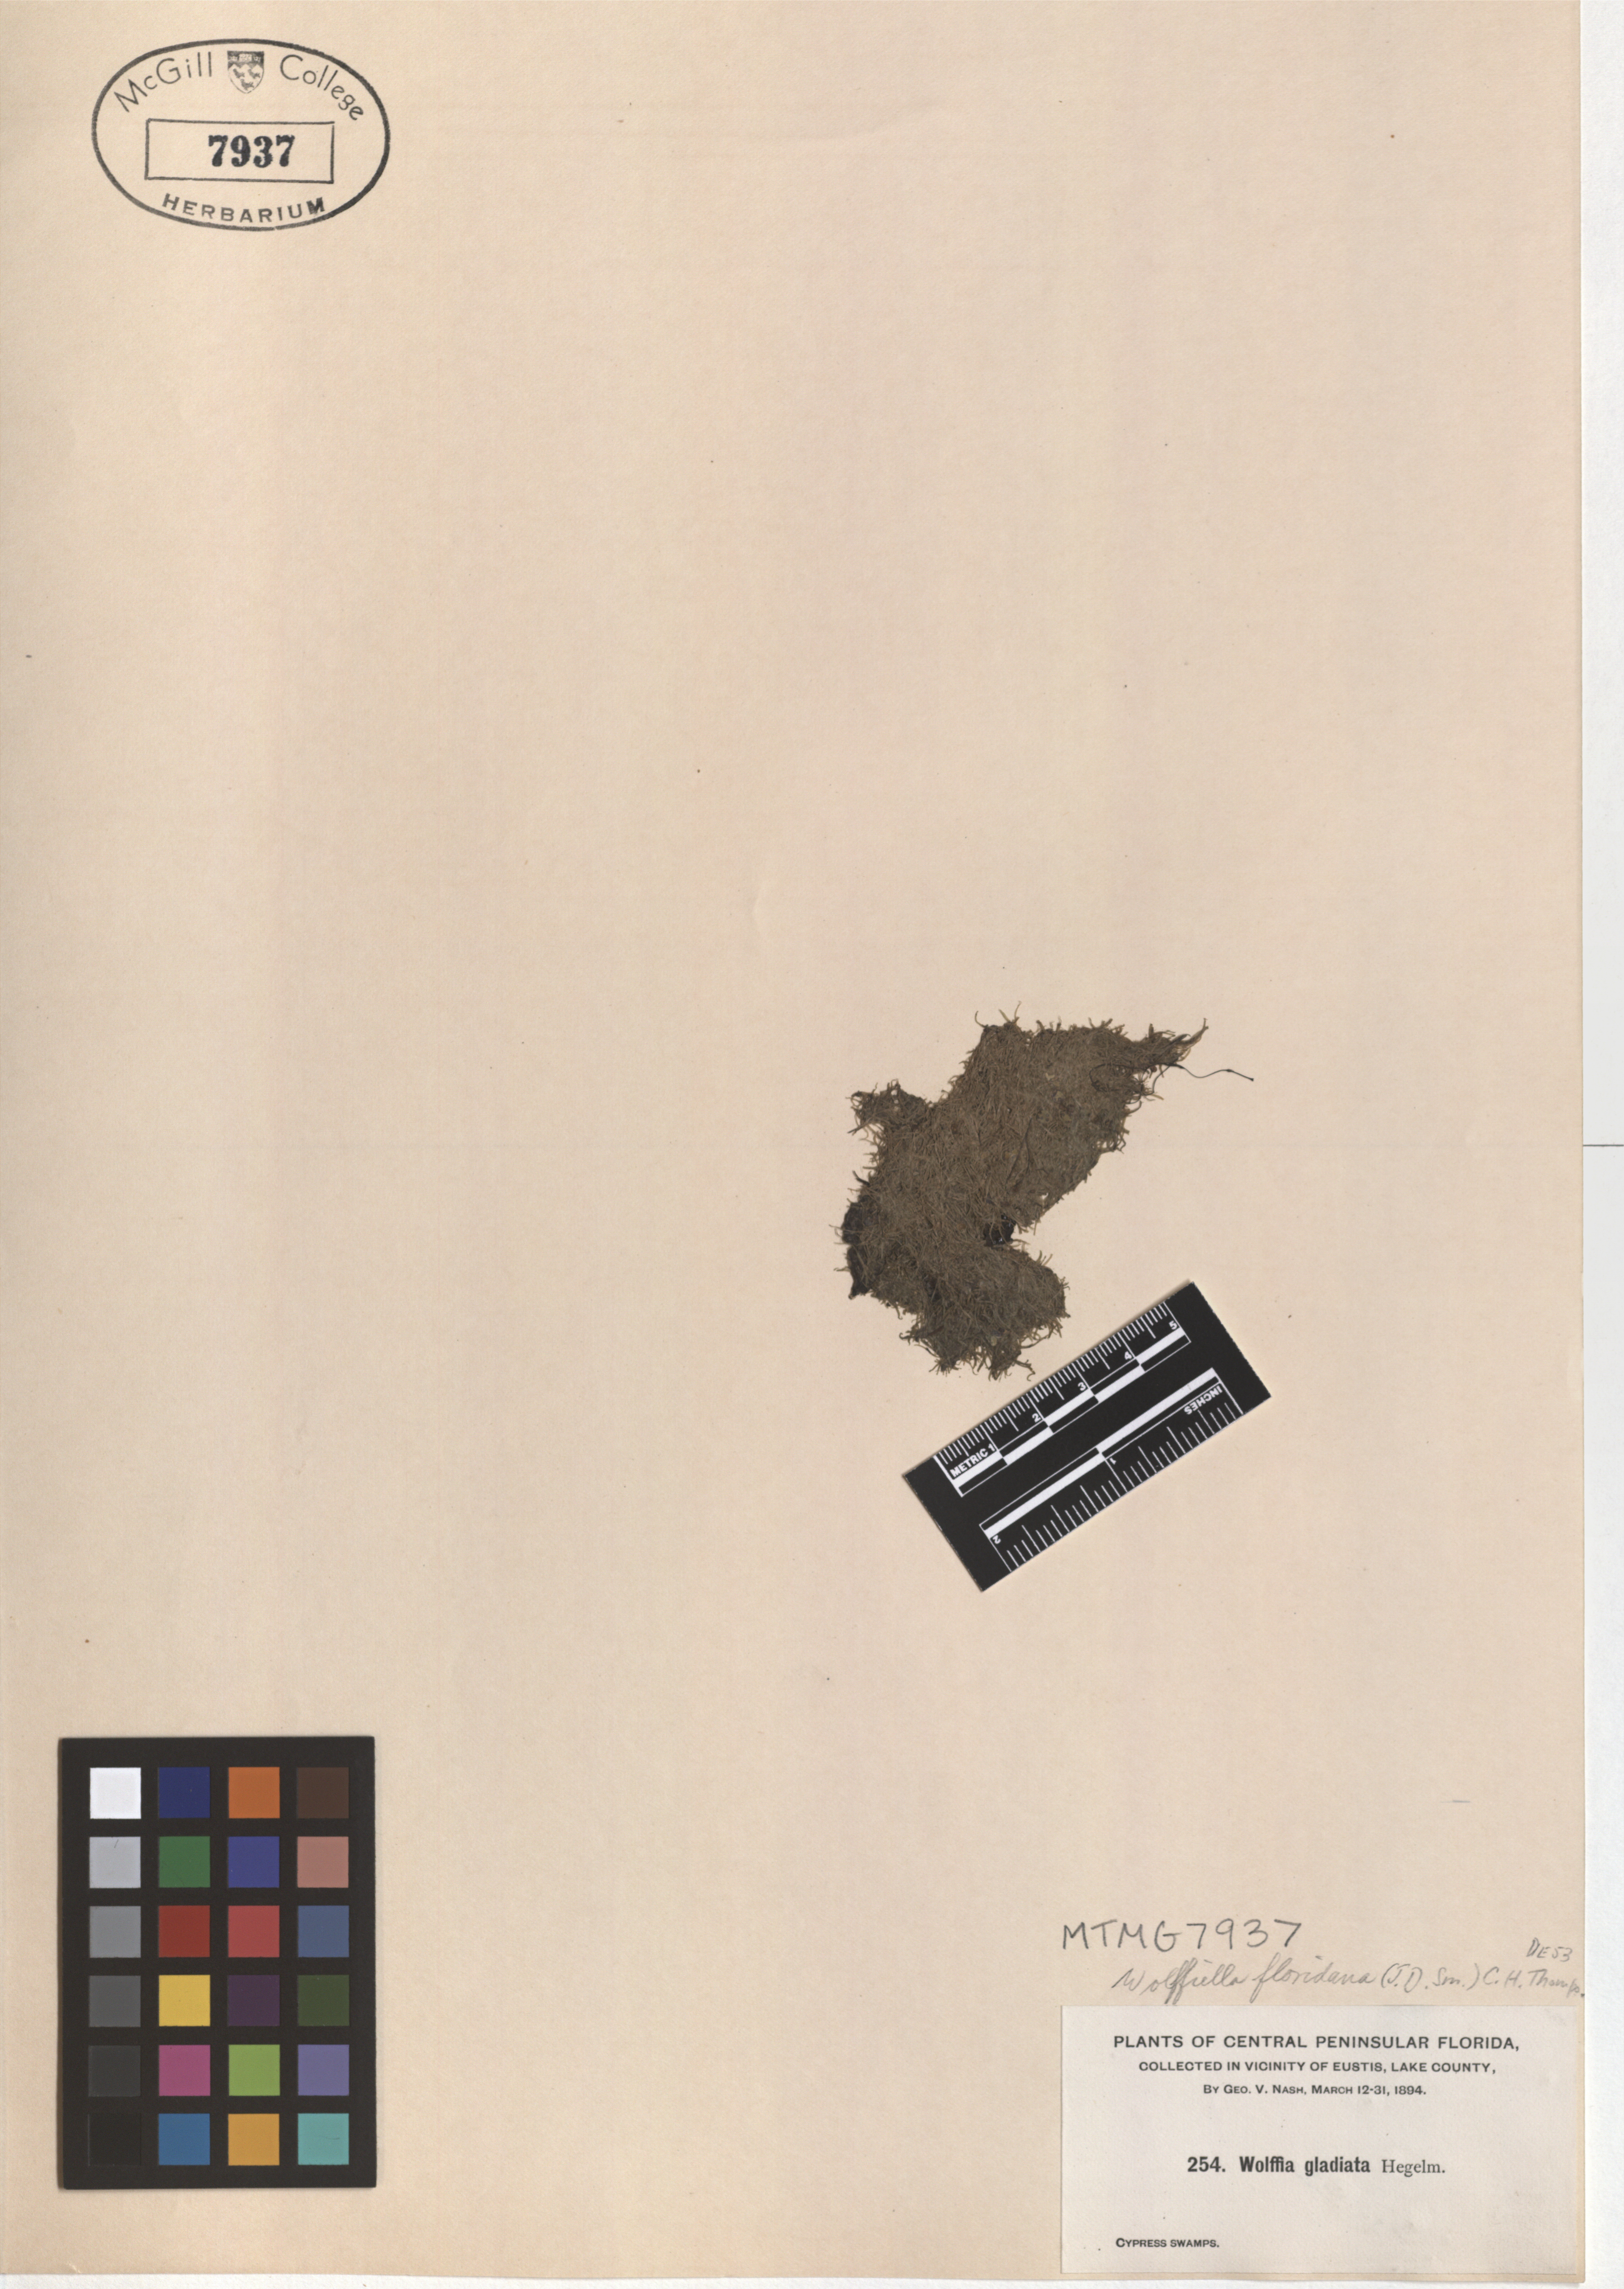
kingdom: Plantae
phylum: Tracheophyta
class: Liliopsida
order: Alismatales
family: Araceae
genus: Wolffiella
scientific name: Wolffiella gladiata
